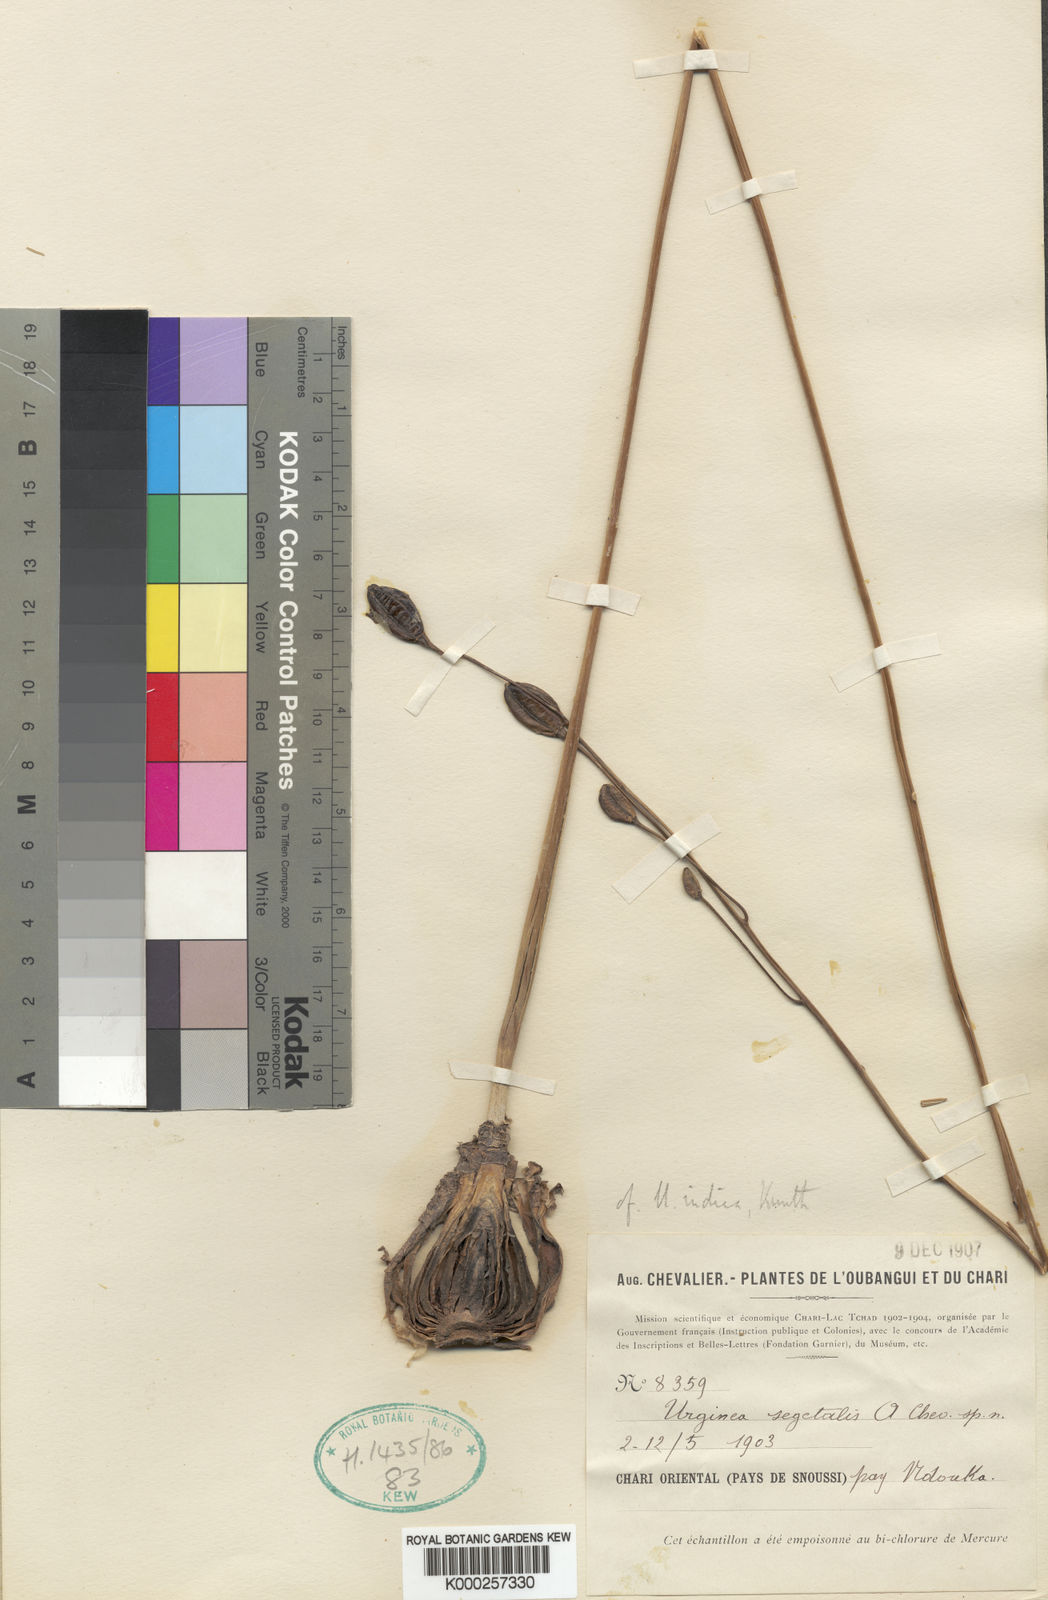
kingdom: Plantae
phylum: Tracheophyta
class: Liliopsida
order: Asparagales
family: Asparagaceae
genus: Drimia
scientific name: Drimia
